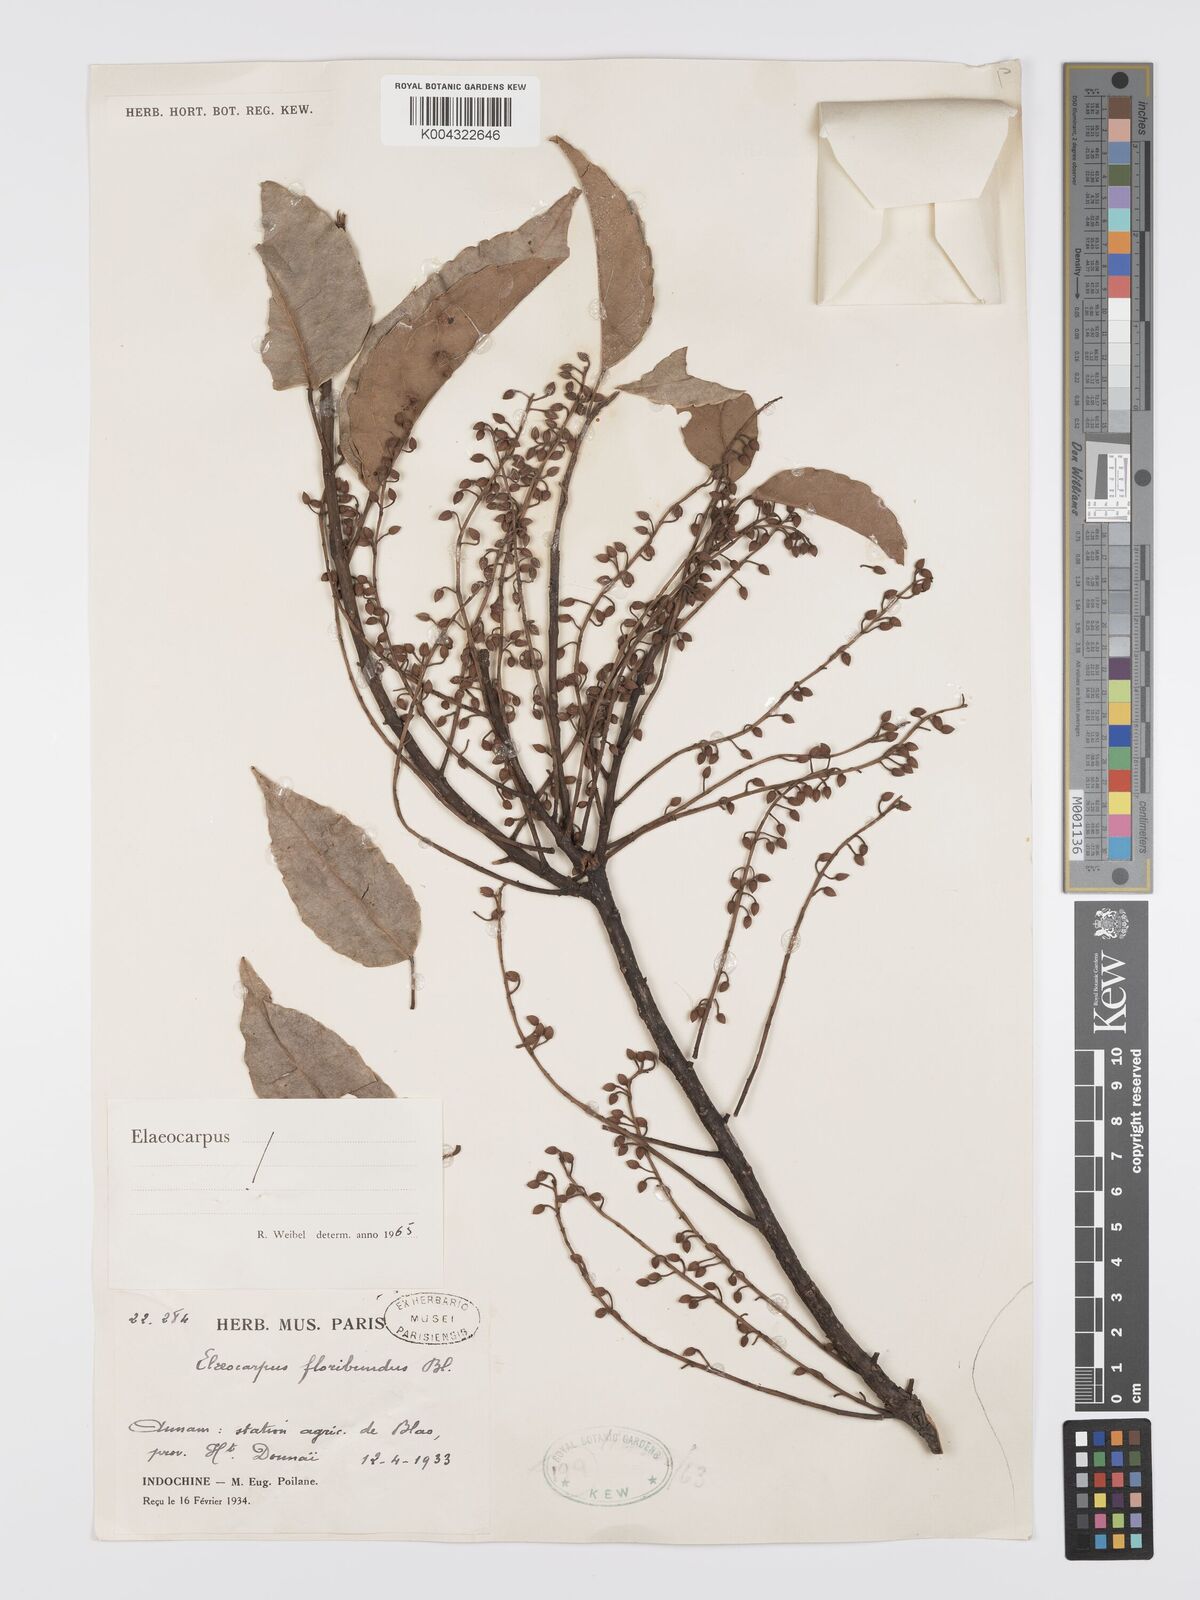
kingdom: Plantae
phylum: Tracheophyta
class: Magnoliopsida
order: Oxalidales
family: Elaeocarpaceae
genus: Elaeocarpus
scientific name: Elaeocarpus floribundus
